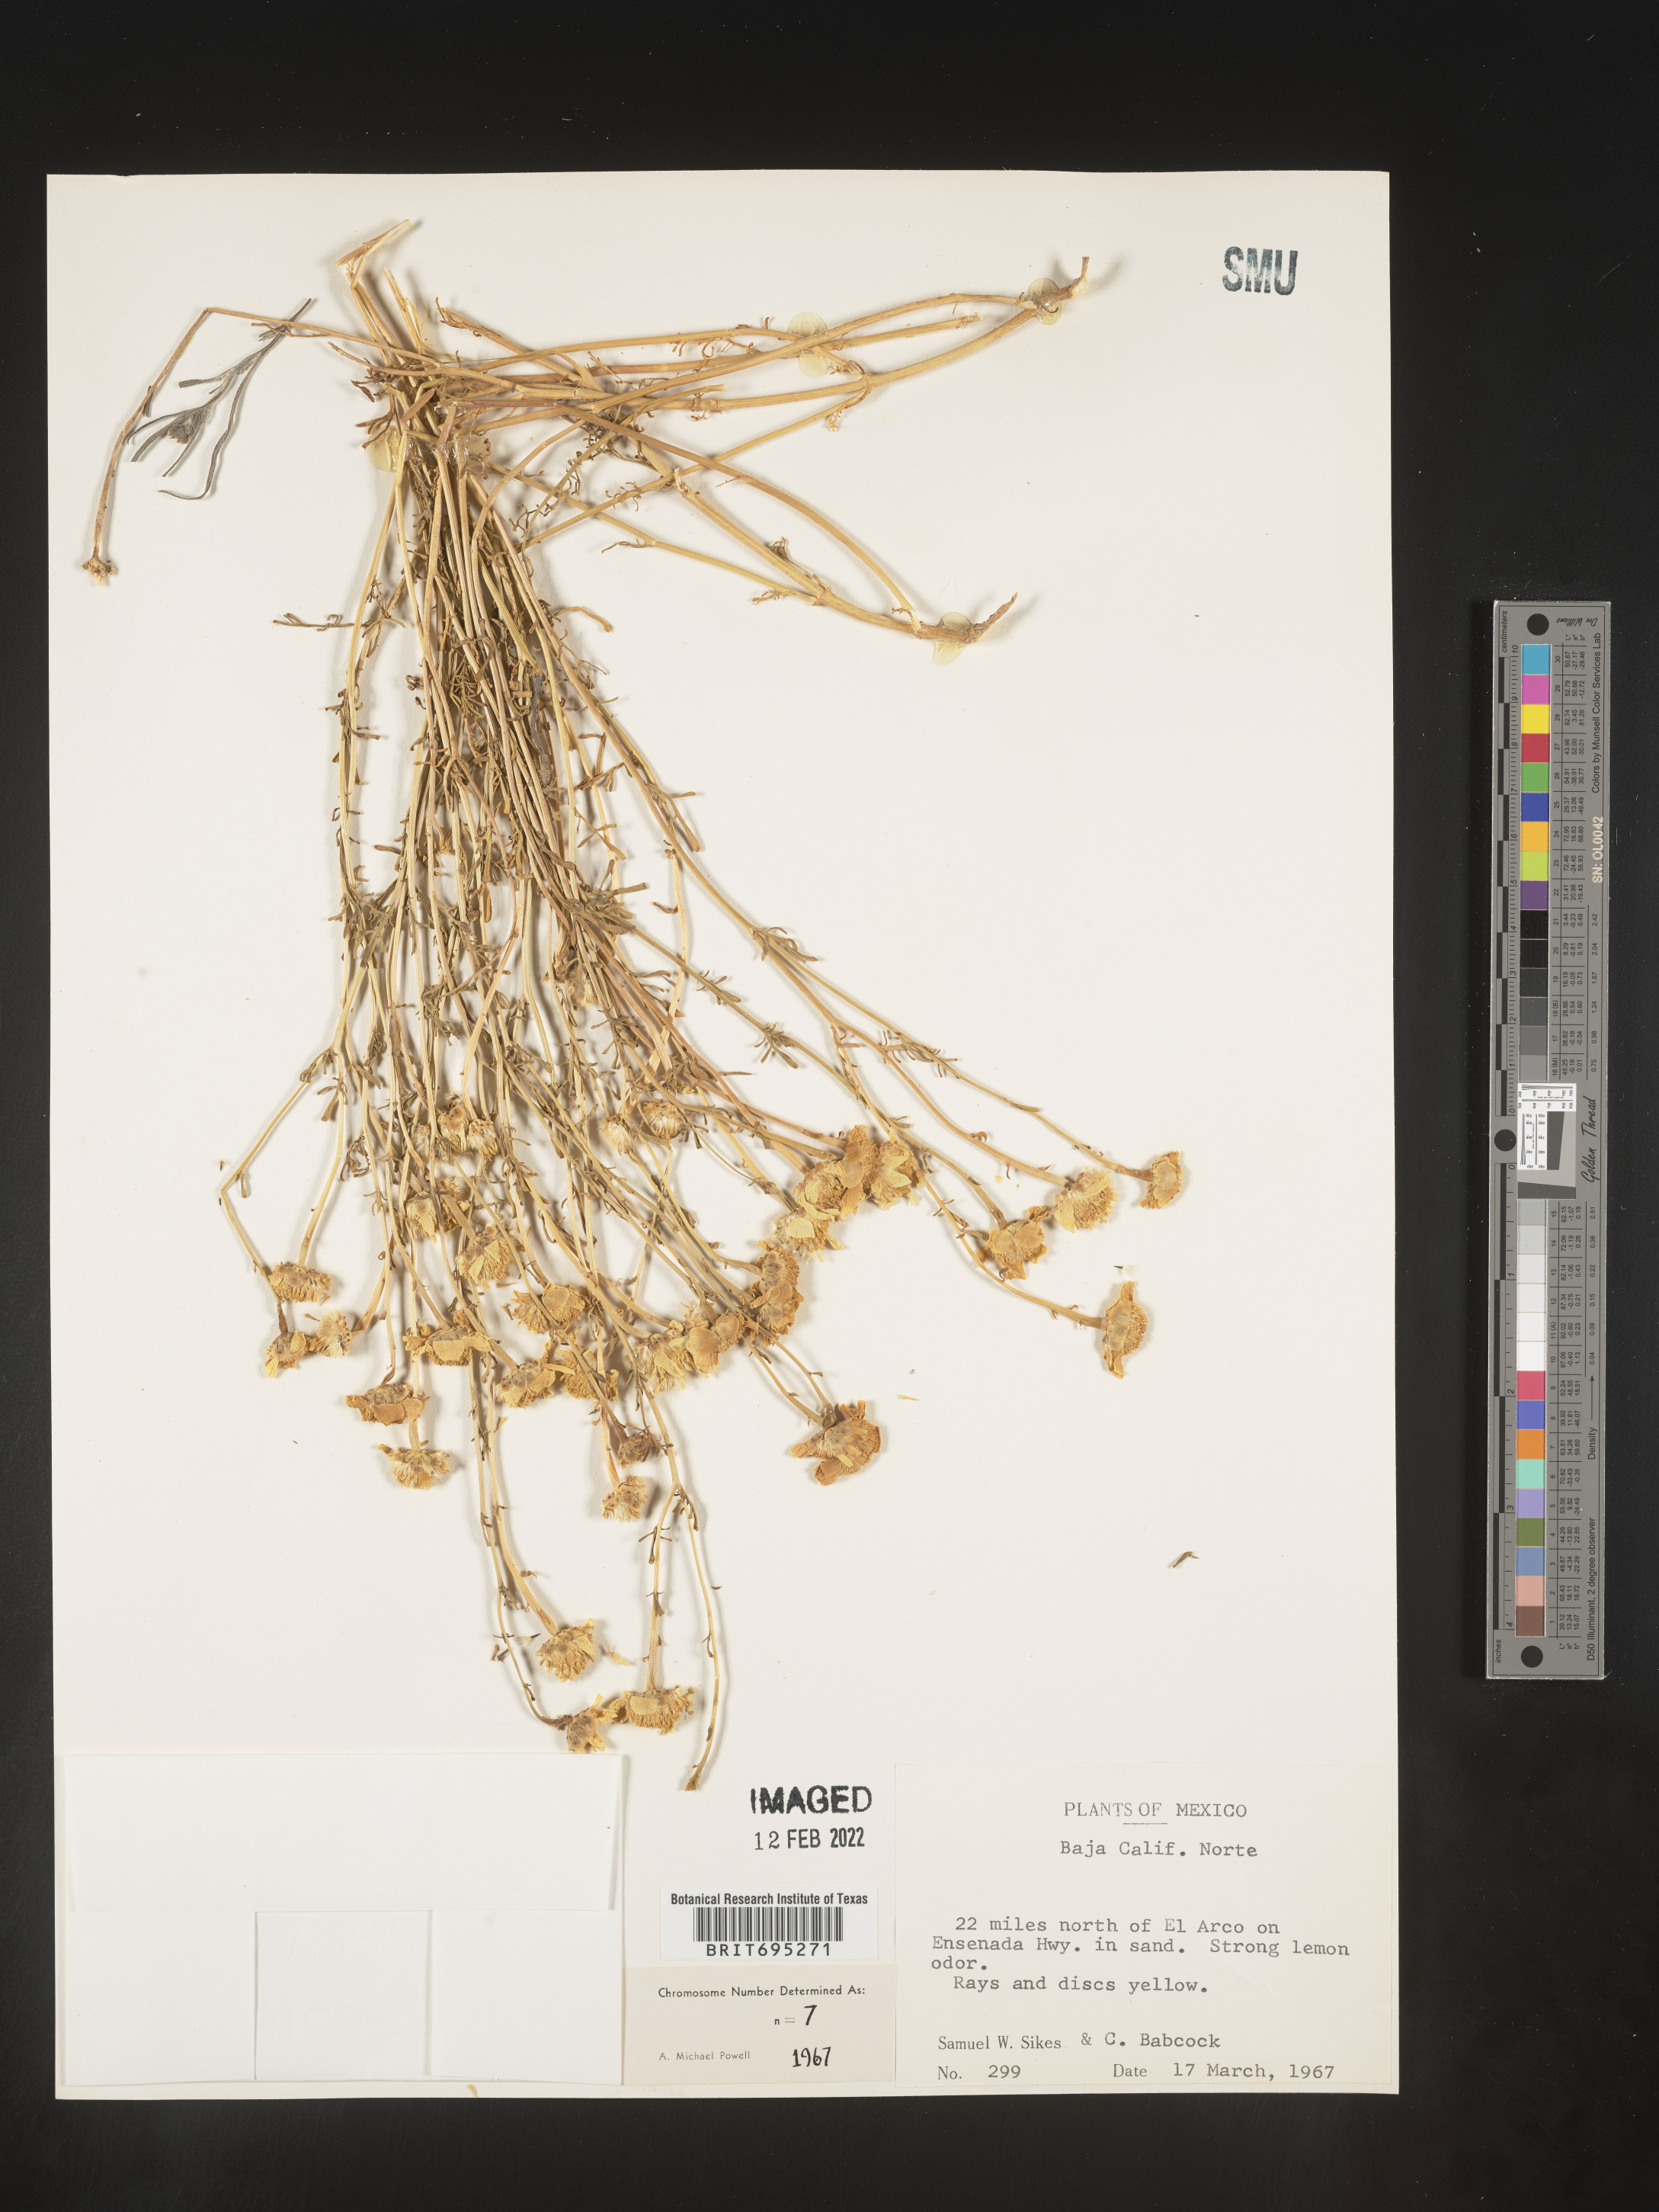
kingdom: Plantae
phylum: Tracheophyta
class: Magnoliopsida
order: Asterales
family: Asteraceae
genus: Dyssodia
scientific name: Dyssodia
